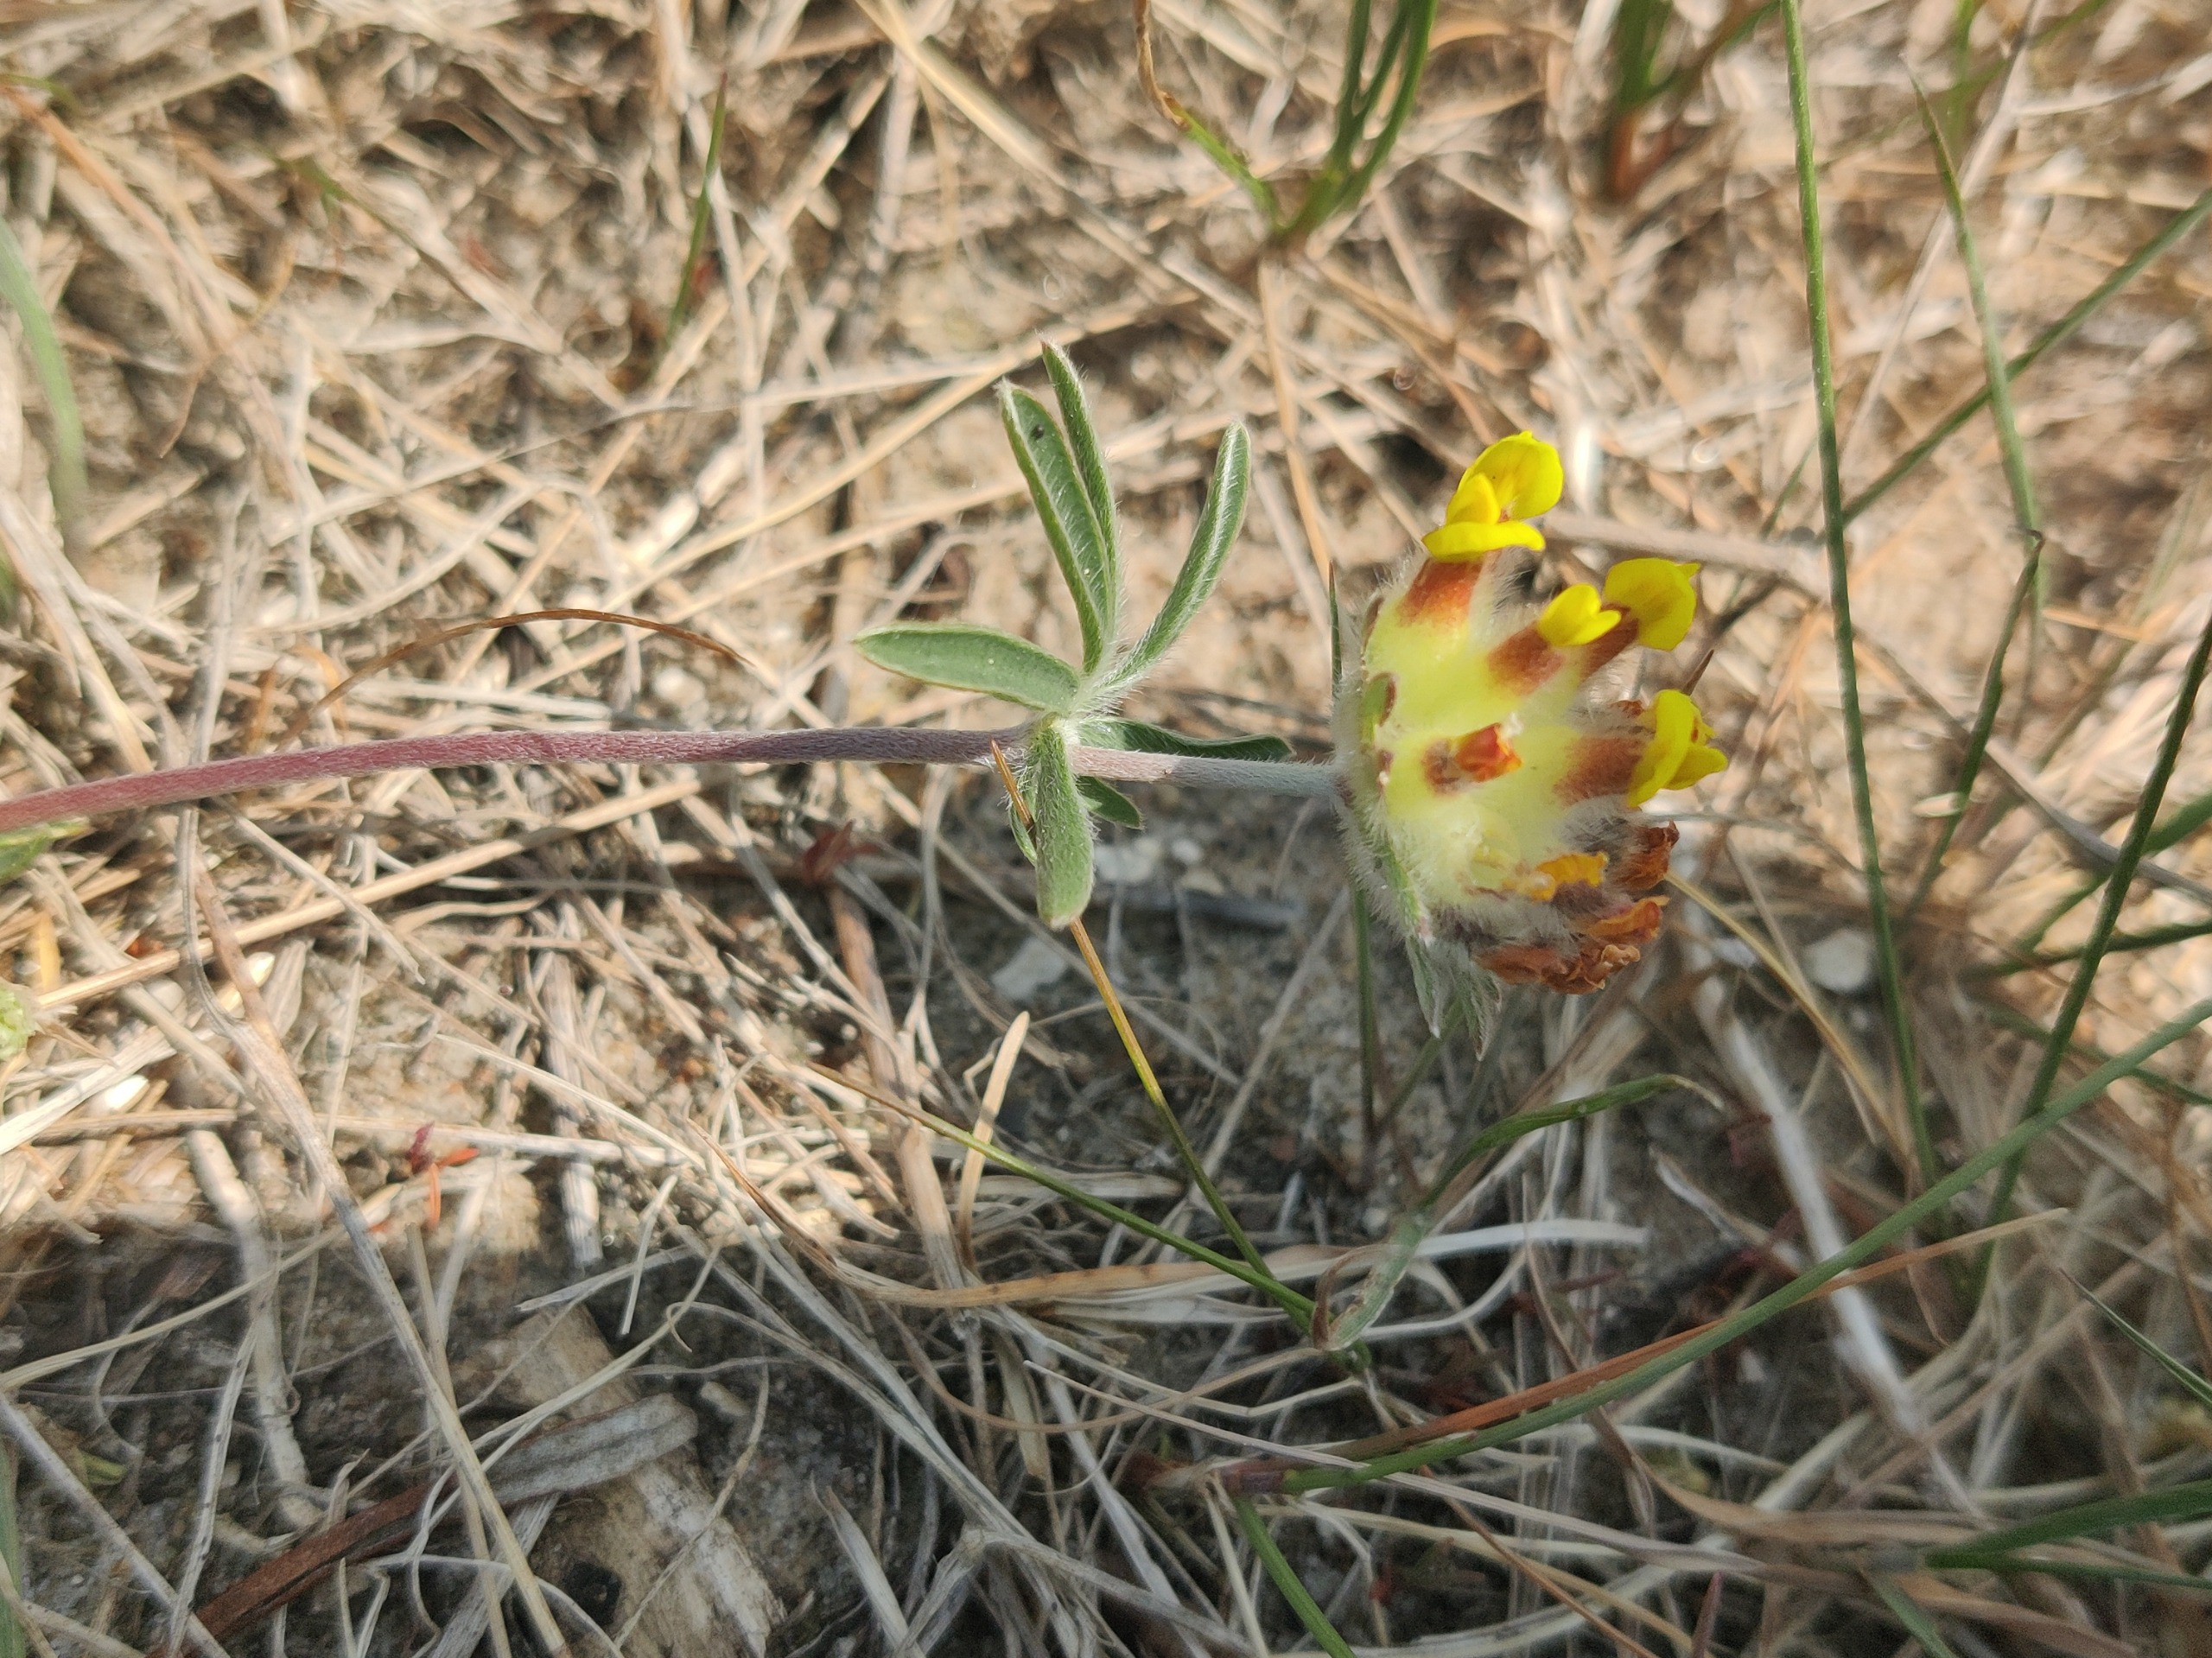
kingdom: Plantae
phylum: Tracheophyta
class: Magnoliopsida
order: Fabales
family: Fabaceae
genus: Anthyllis
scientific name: Anthyllis vulneraria
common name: Rundbælg
